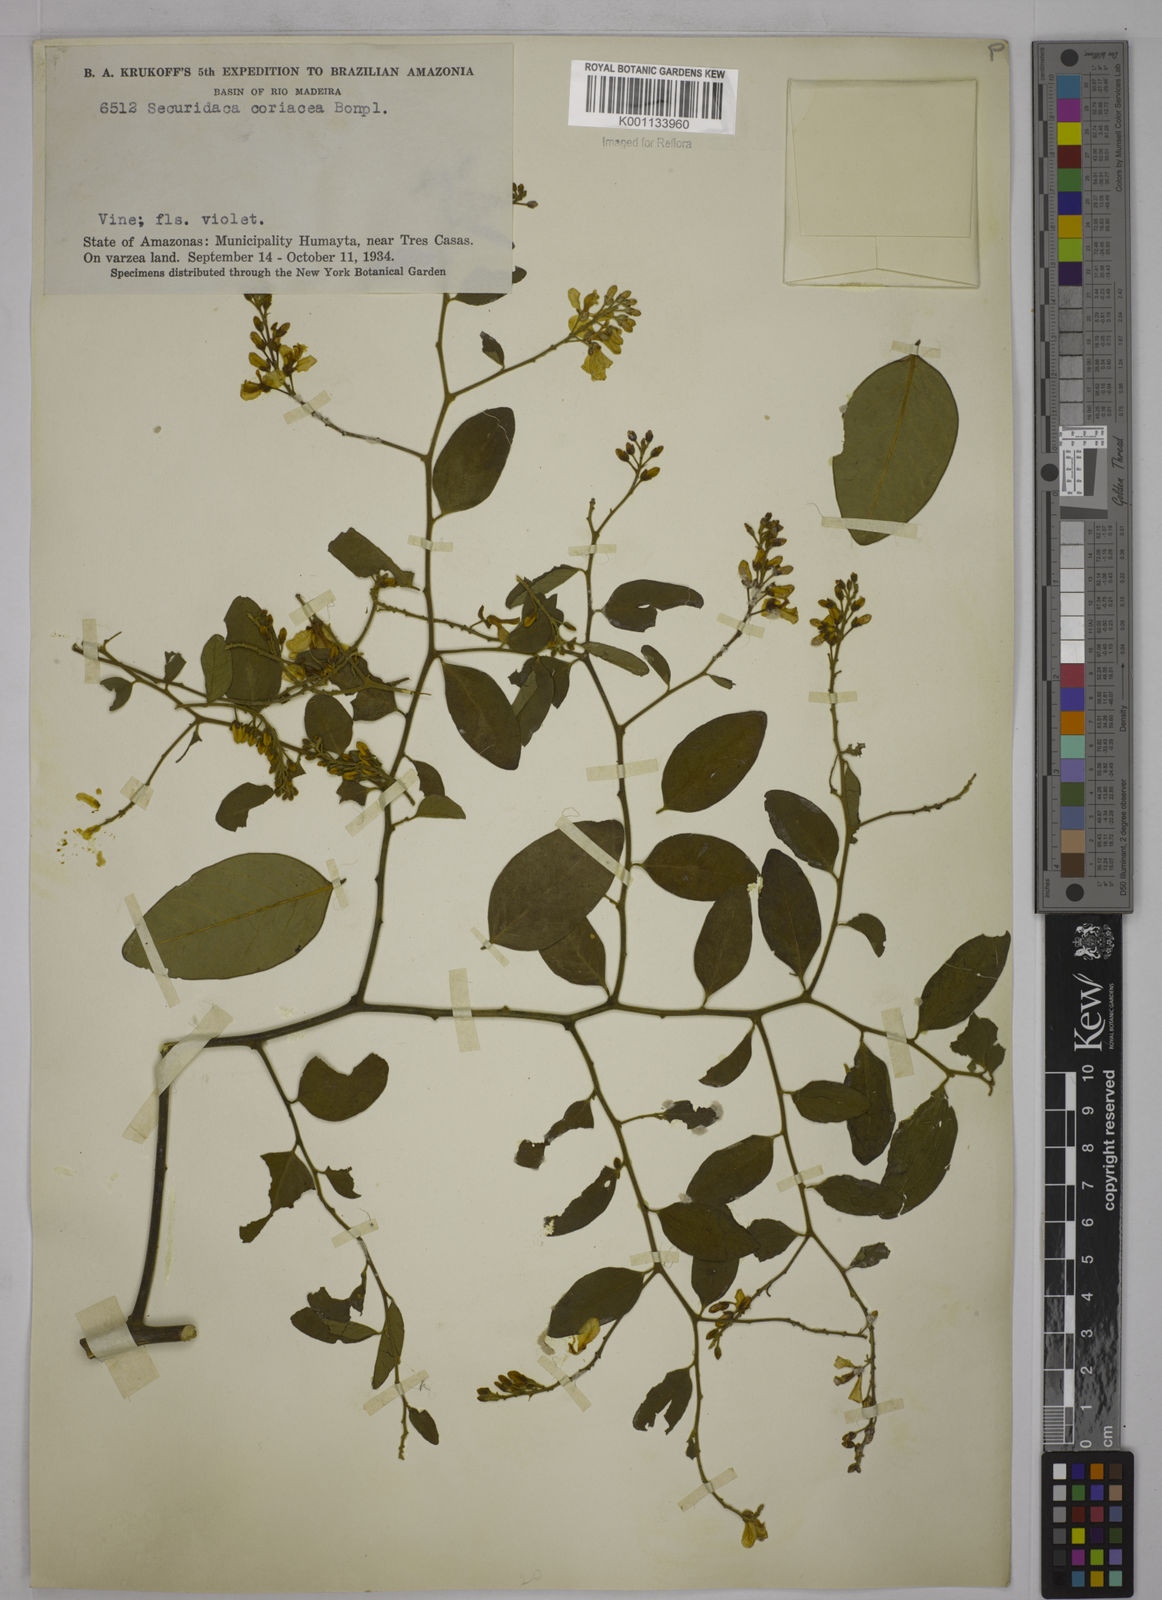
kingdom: Plantae
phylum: Tracheophyta
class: Magnoliopsida
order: Fabales
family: Polygalaceae
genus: Securidaca
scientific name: Securidaca diversifolia
